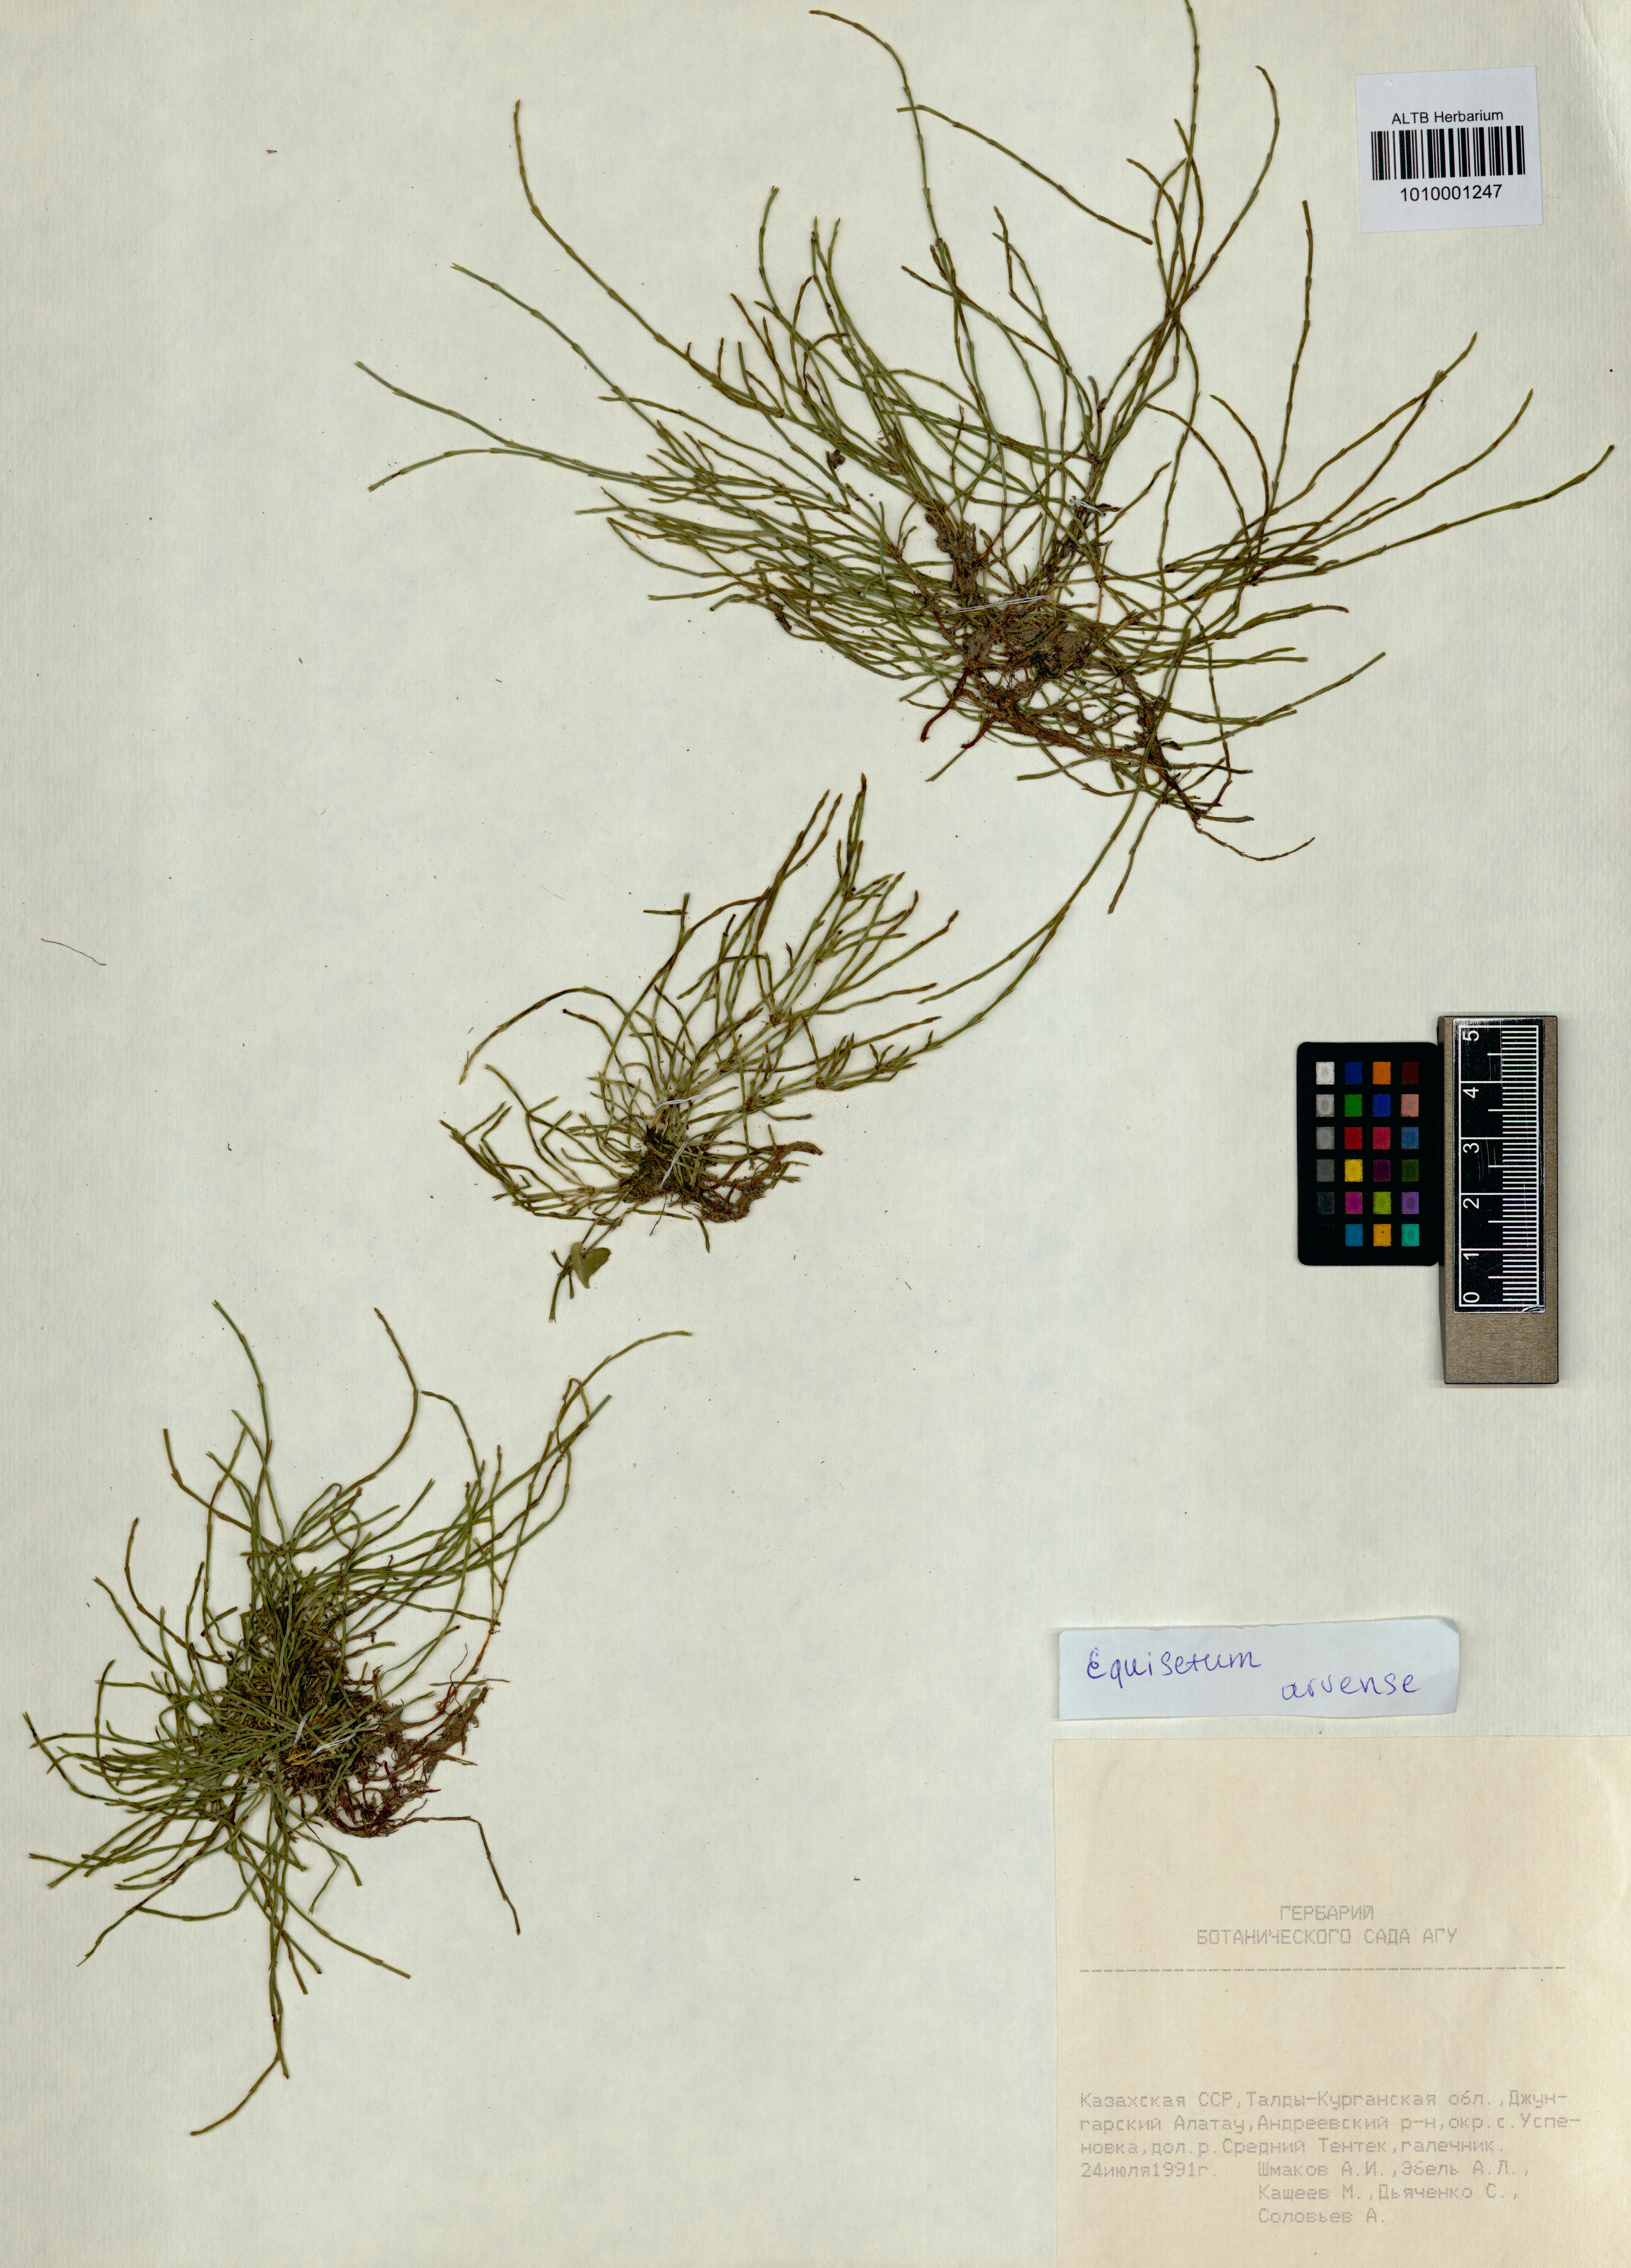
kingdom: Plantae
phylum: Tracheophyta
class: Polypodiopsida
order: Equisetales
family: Equisetaceae
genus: Equisetum
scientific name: Equisetum arvense
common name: Field horsetail
